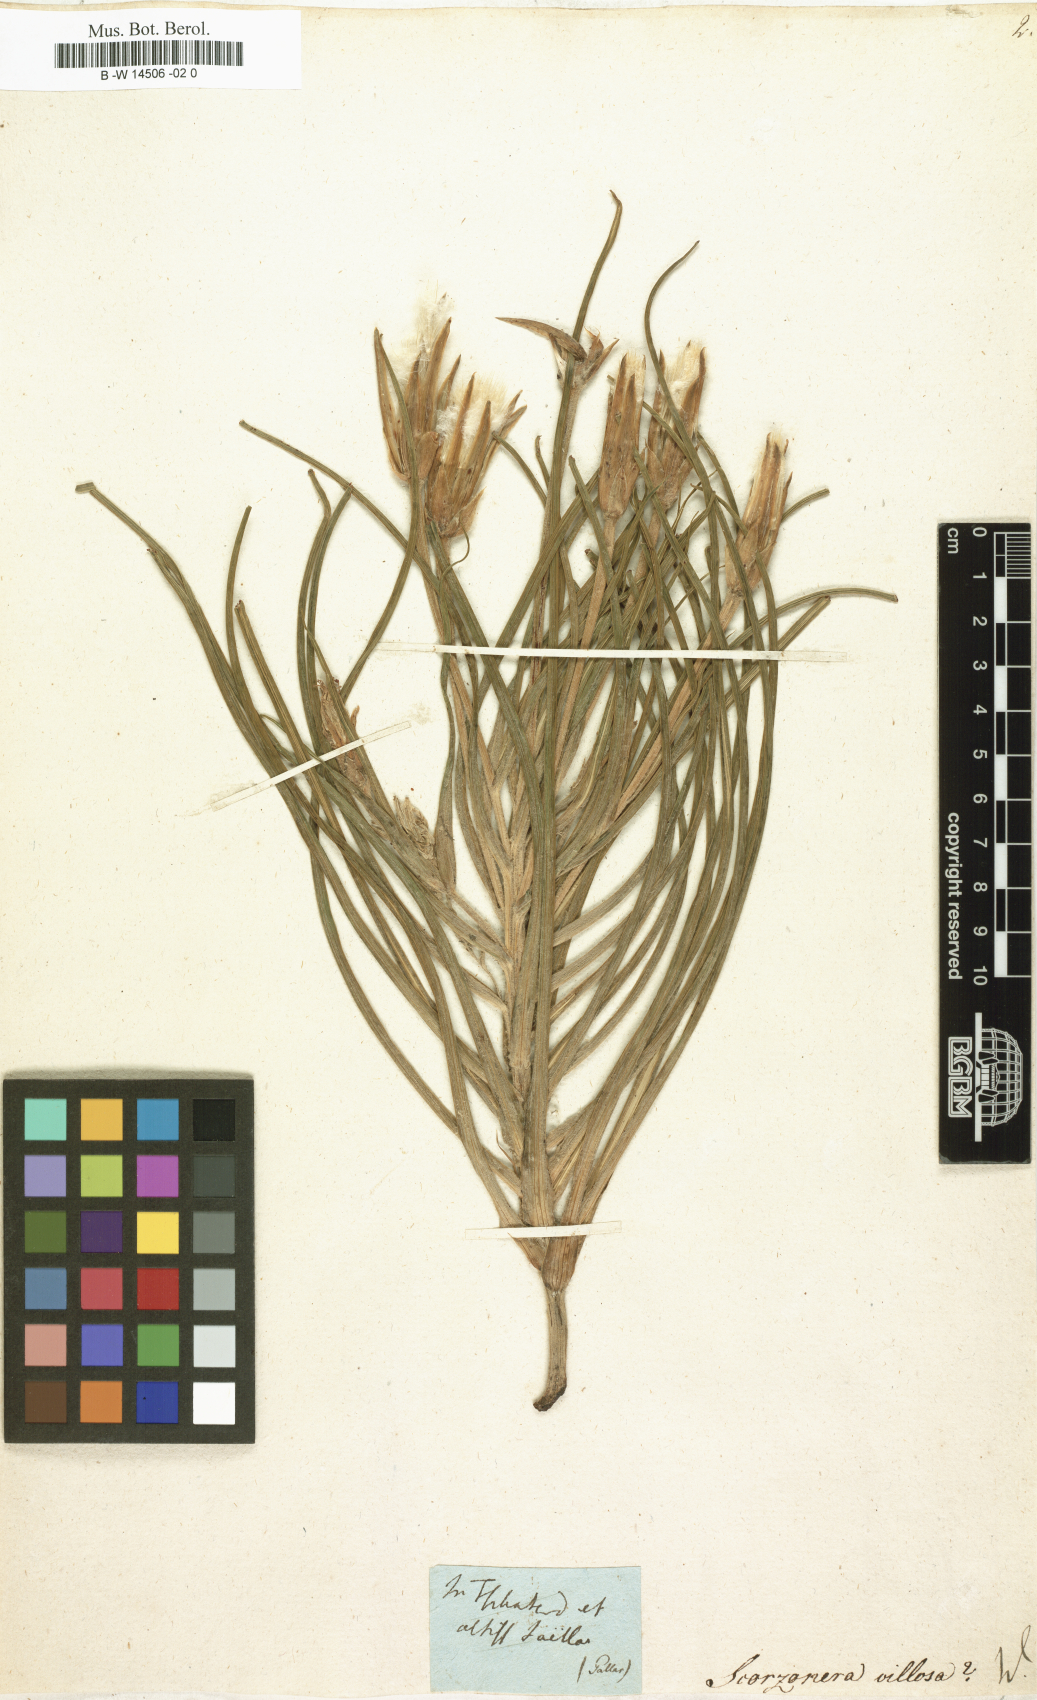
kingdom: Plantae
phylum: Tracheophyta
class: Magnoliopsida
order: Asterales
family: Asteraceae
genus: Gelasia
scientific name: Gelasia villosa
